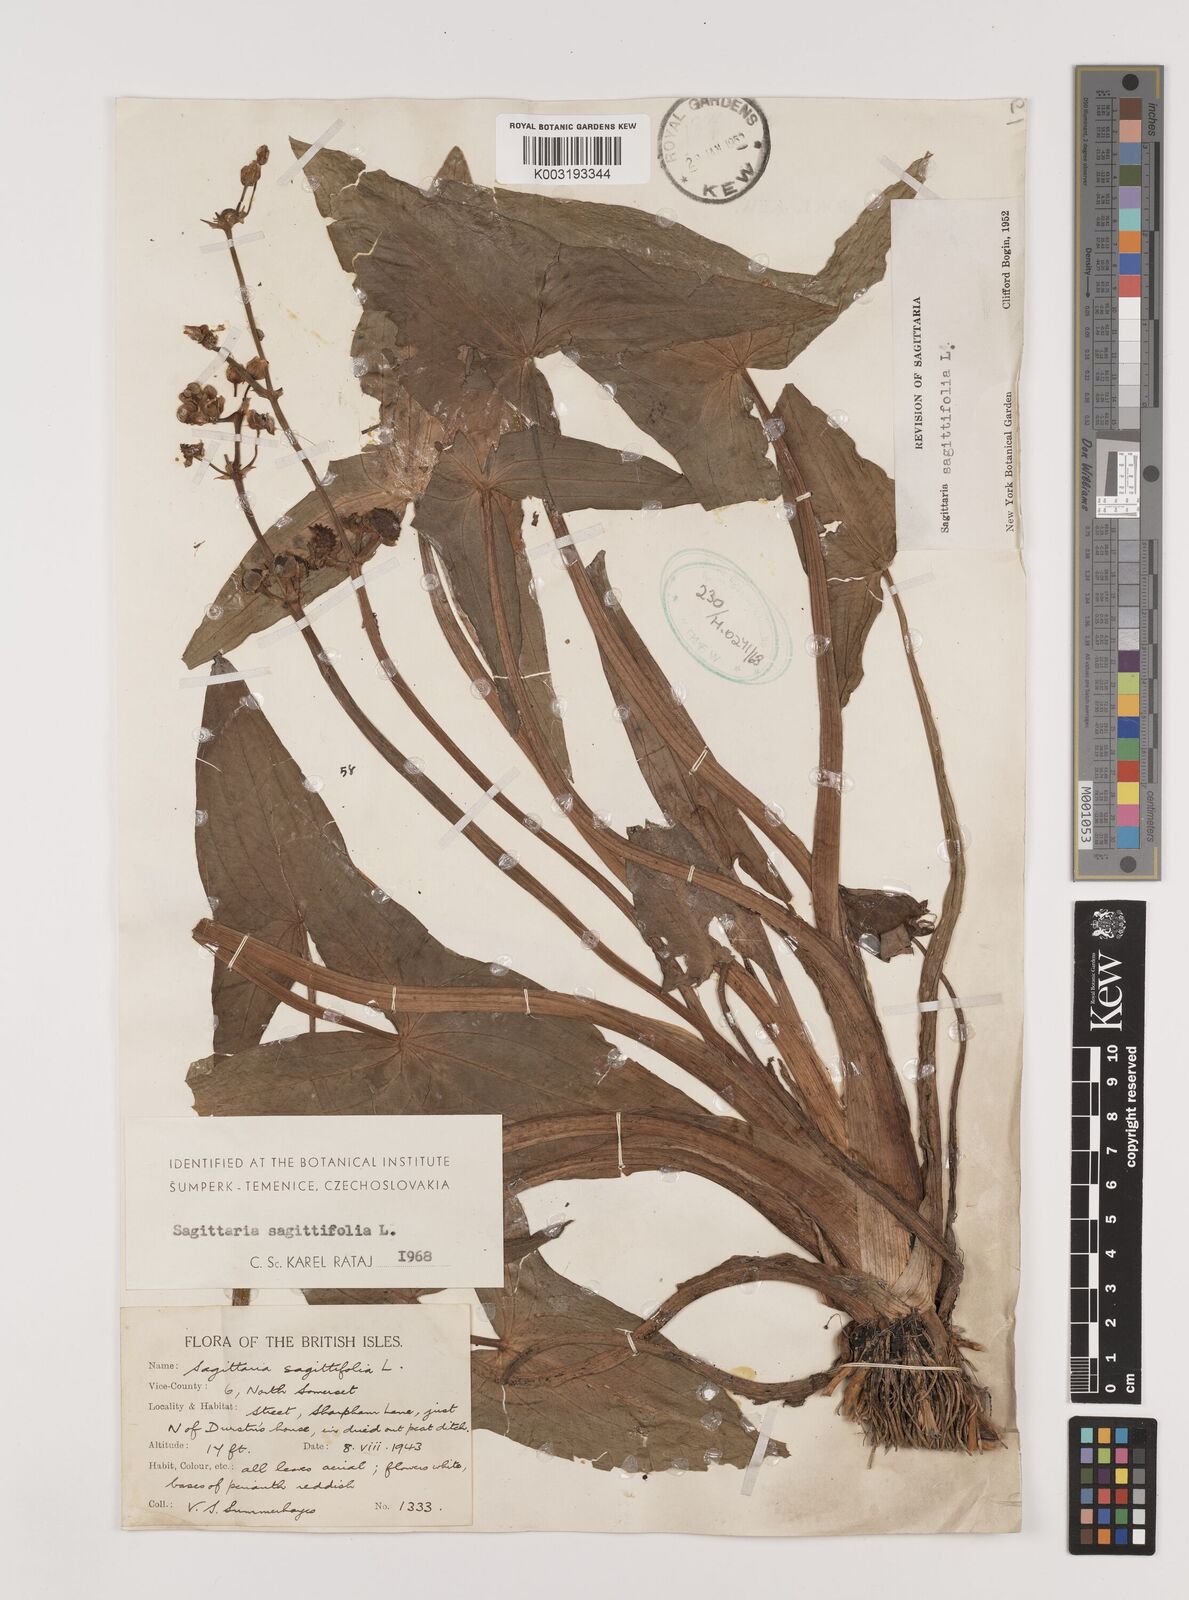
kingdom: Plantae
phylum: Tracheophyta
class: Liliopsida
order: Alismatales
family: Alismataceae
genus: Sagittaria
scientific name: Sagittaria sagittifolia
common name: Arrowhead
